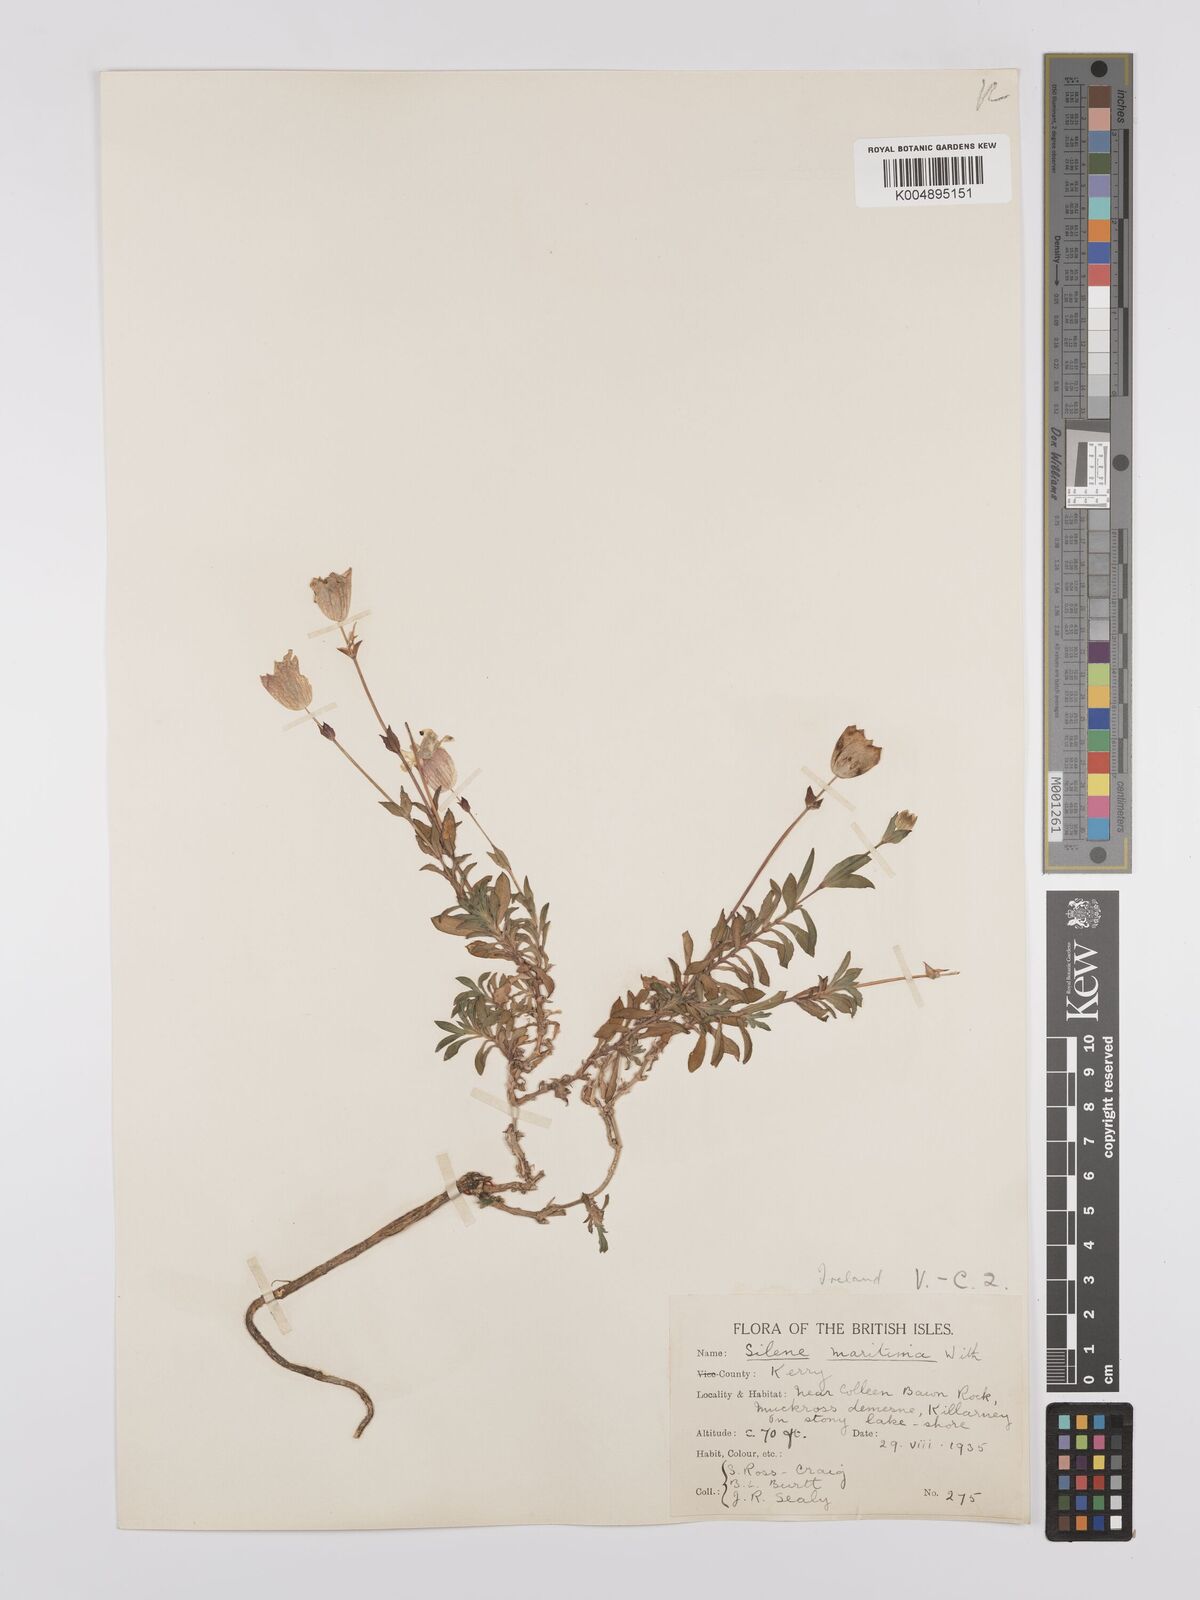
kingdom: Plantae
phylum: Tracheophyta
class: Magnoliopsida
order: Caryophyllales
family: Caryophyllaceae
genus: Silene
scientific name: Silene uniflora
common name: Sea campion
